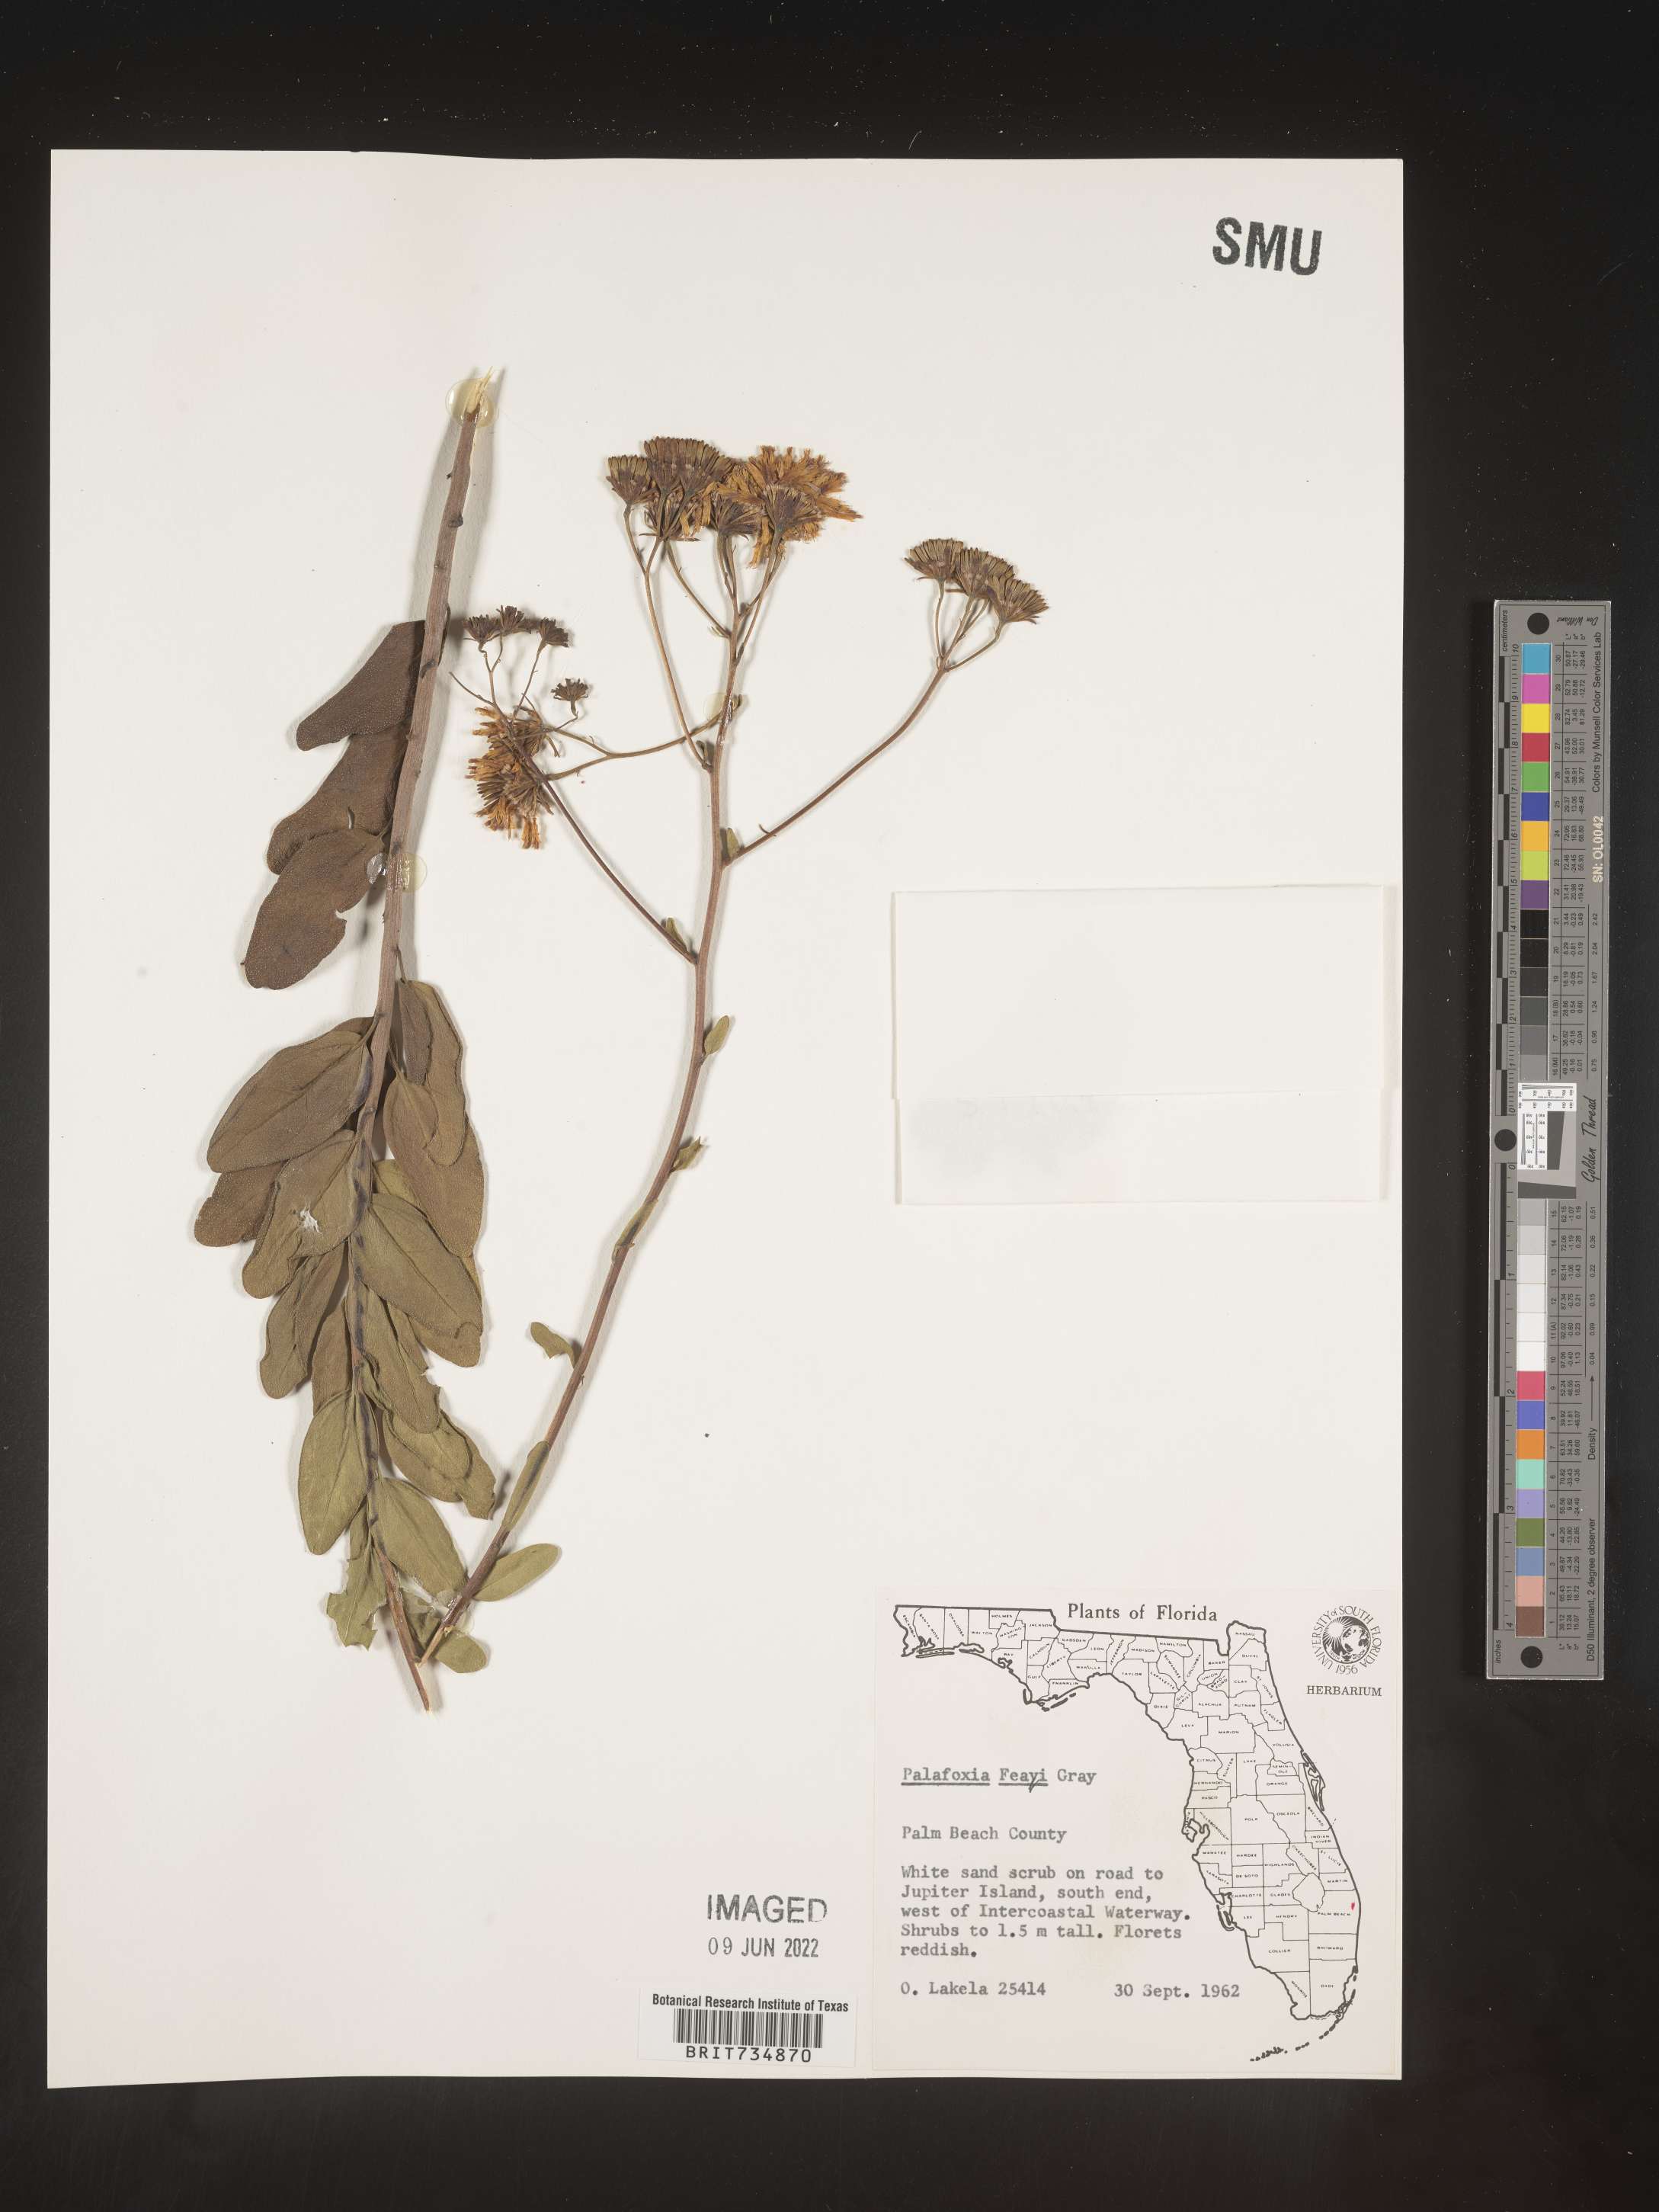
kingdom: Plantae
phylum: Tracheophyta
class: Magnoliopsida
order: Asterales
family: Asteraceae
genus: Palafoxia
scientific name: Palafoxia feayi
